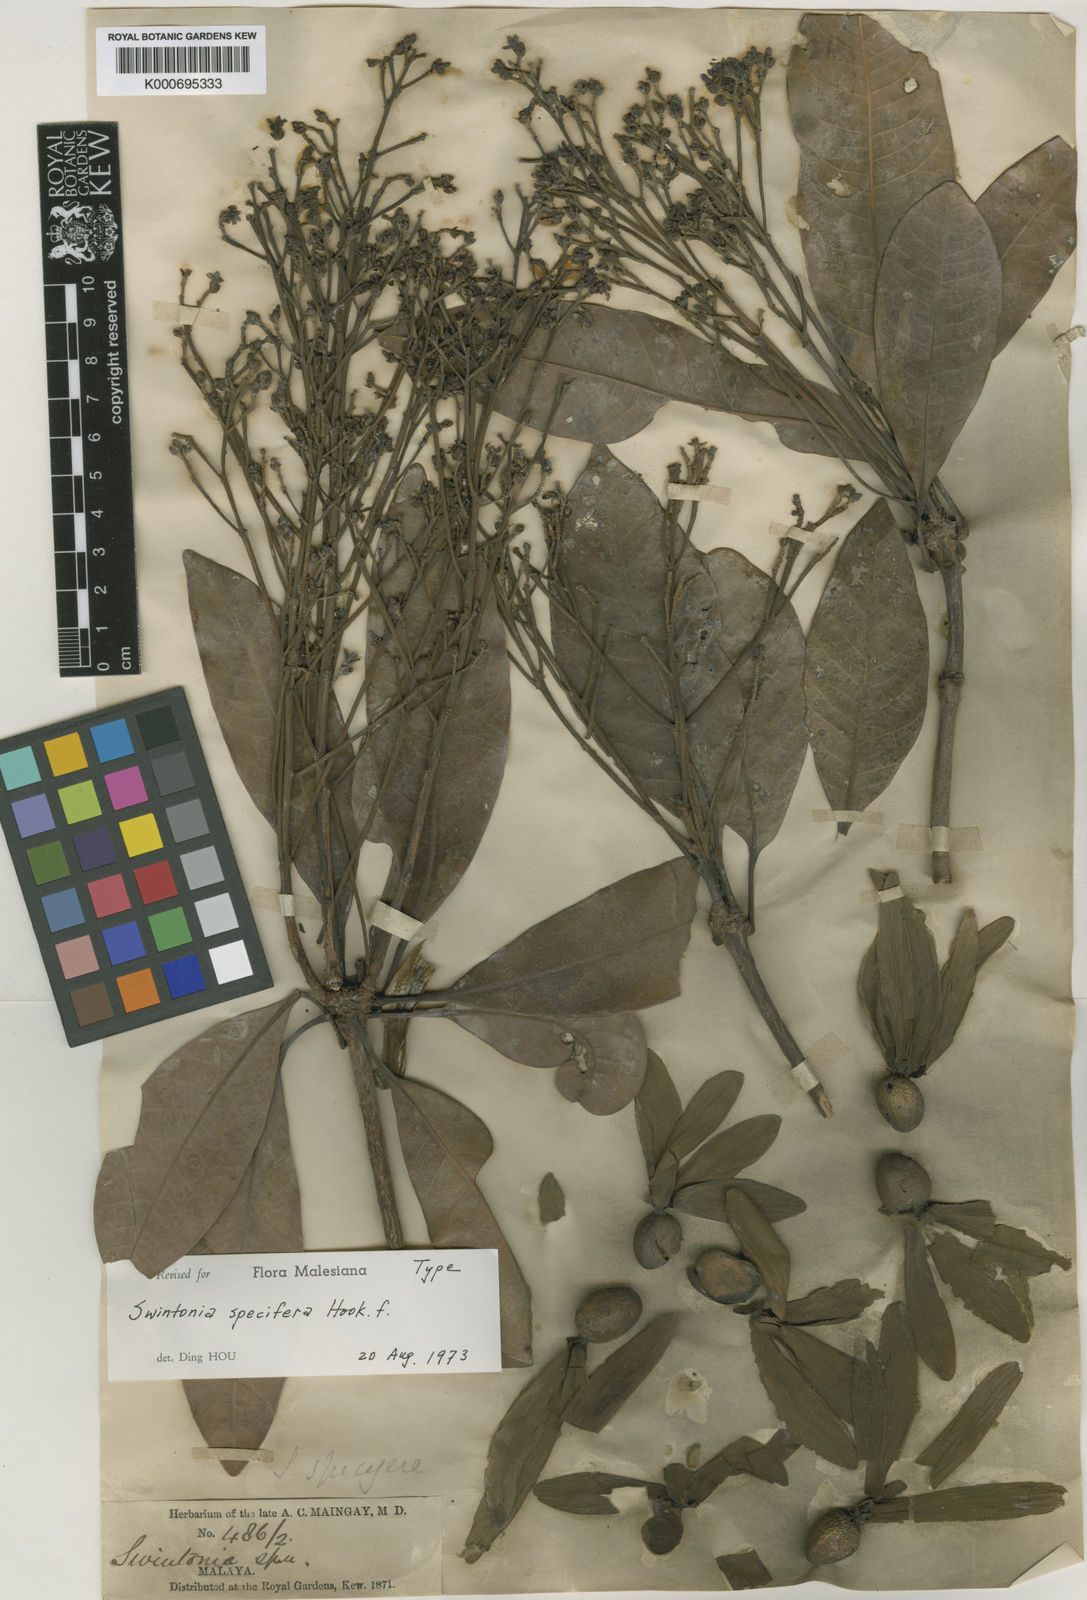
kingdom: Plantae
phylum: Tracheophyta
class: Magnoliopsida
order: Sapindales
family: Anacardiaceae
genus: Swintonia
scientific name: Swintonia
